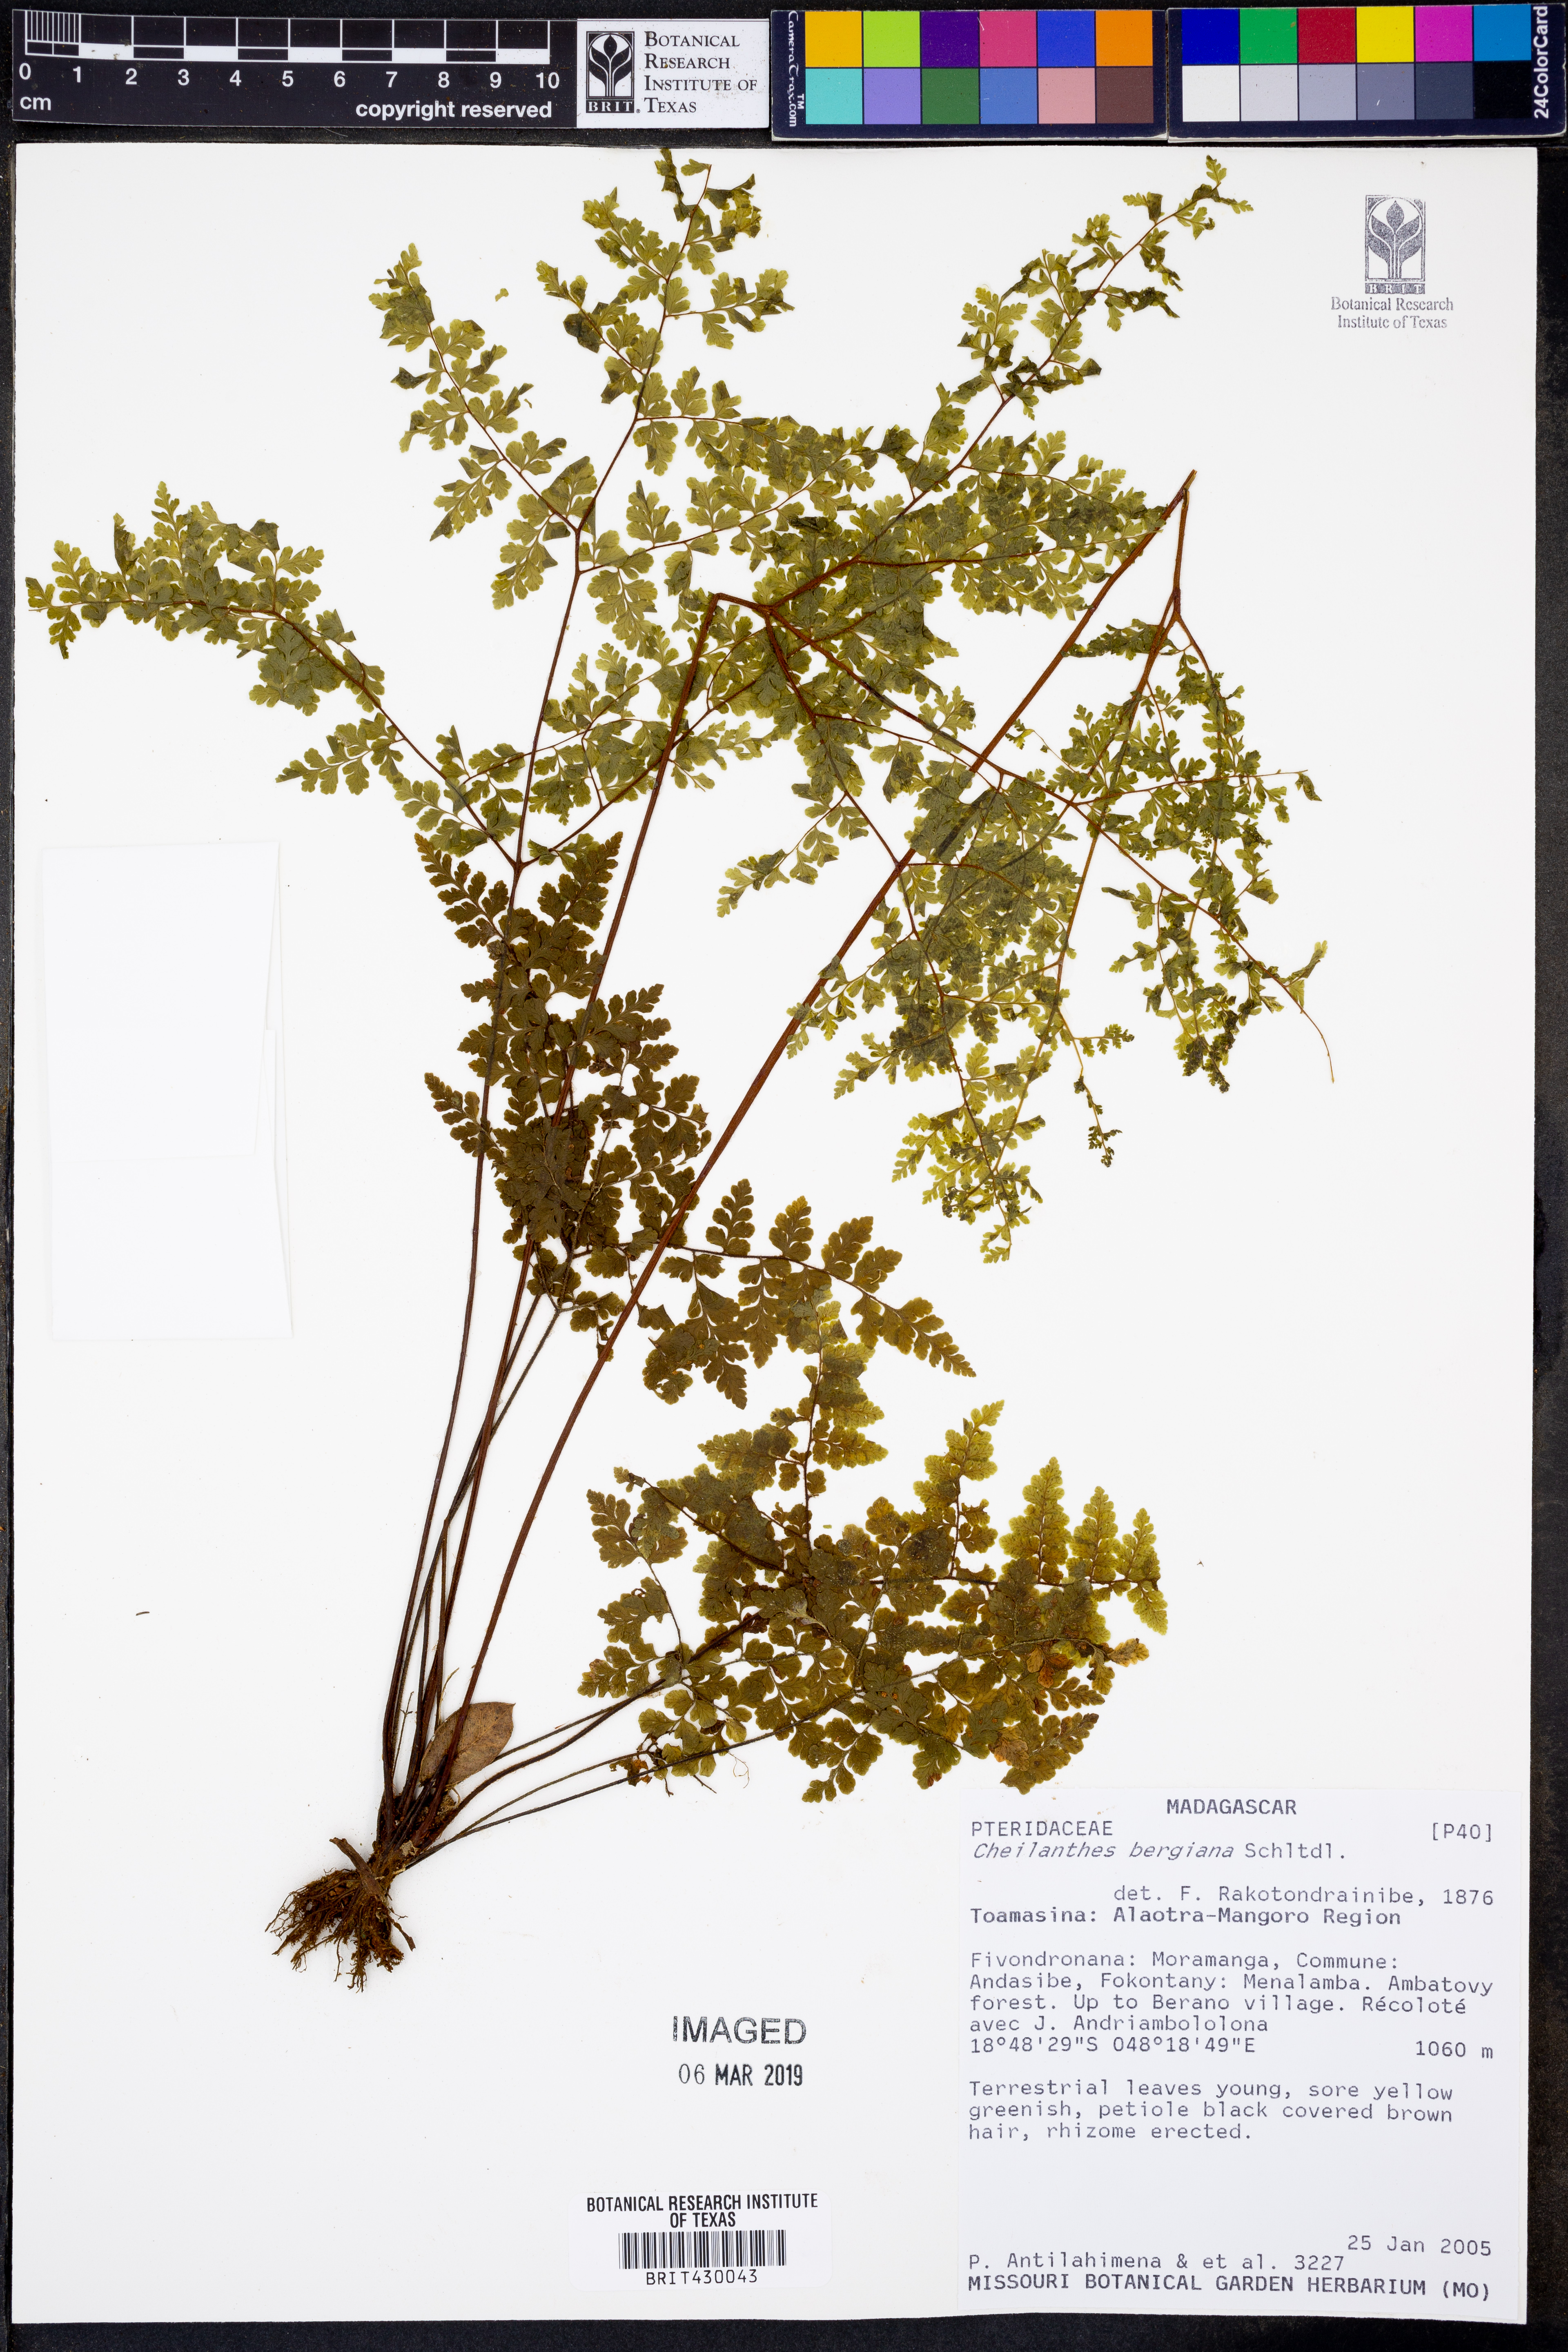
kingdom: Plantae
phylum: Tracheophyta
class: Polypodiopsida
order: Polypodiales
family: Pteridaceae
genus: Cheilanthes
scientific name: Cheilanthes bergiana
